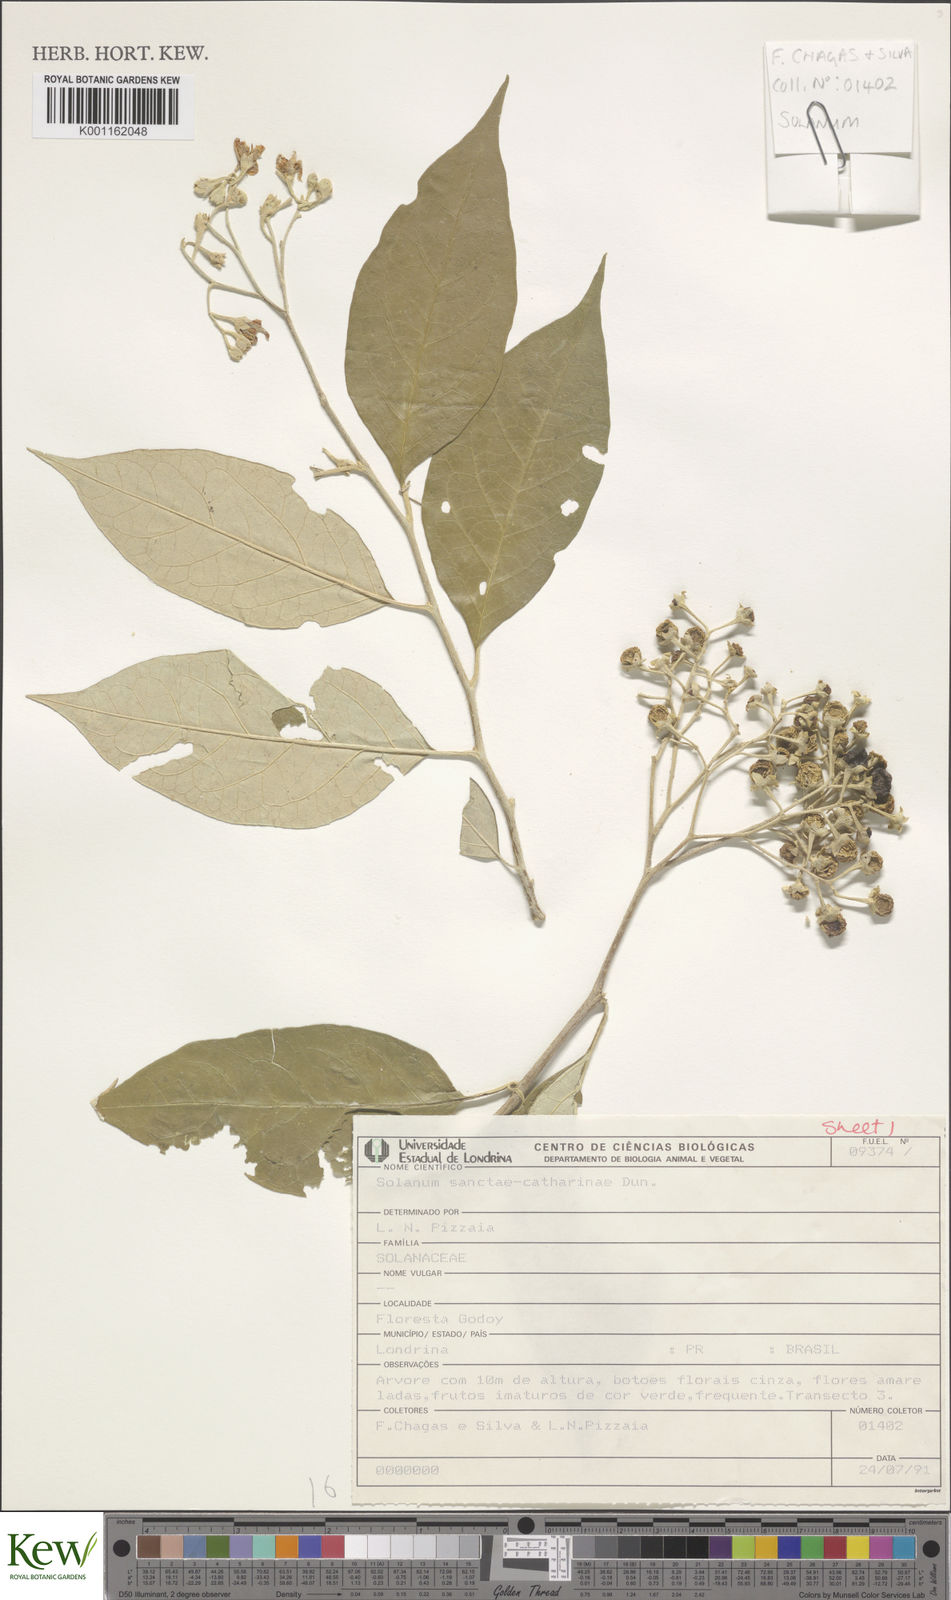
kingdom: Plantae
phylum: Tracheophyta
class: Magnoliopsida
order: Solanales
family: Solanaceae
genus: Solanum
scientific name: Solanum sanctae-catharinae
